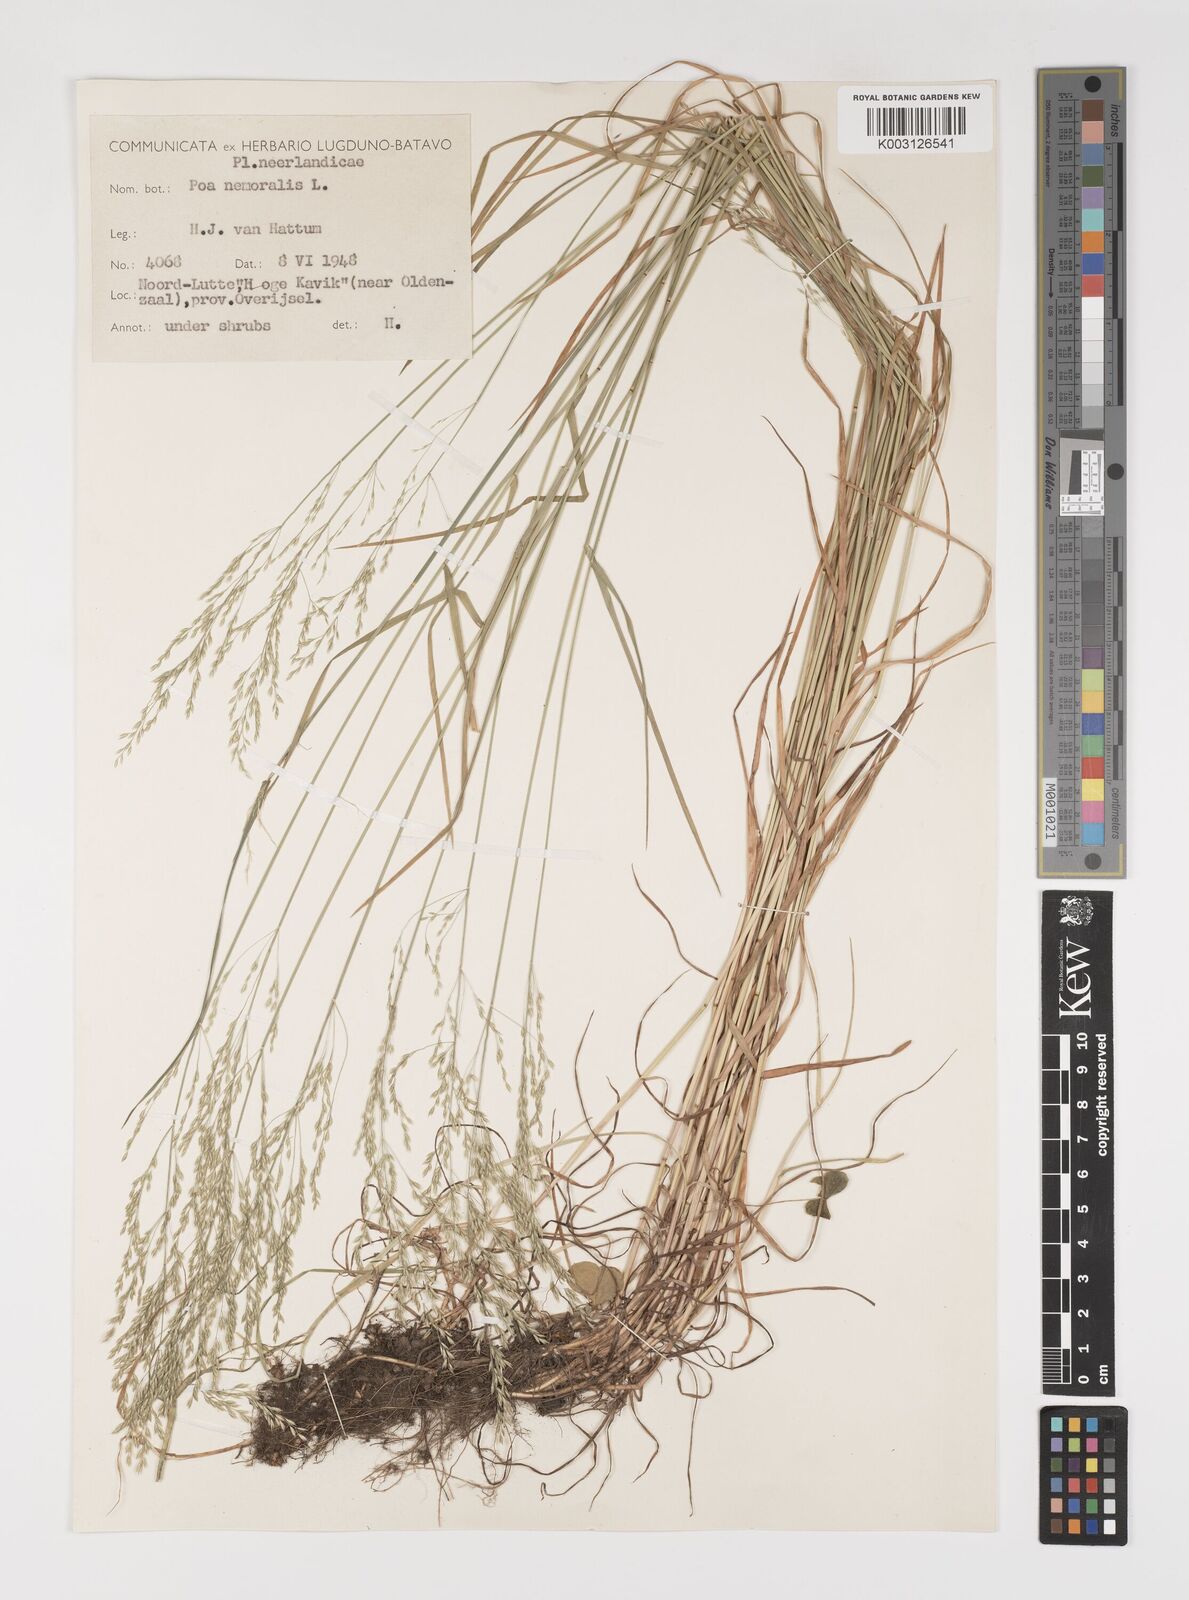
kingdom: Plantae
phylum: Tracheophyta
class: Liliopsida
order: Poales
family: Poaceae
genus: Poa
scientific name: Poa nemoralis
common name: Wood bluegrass
